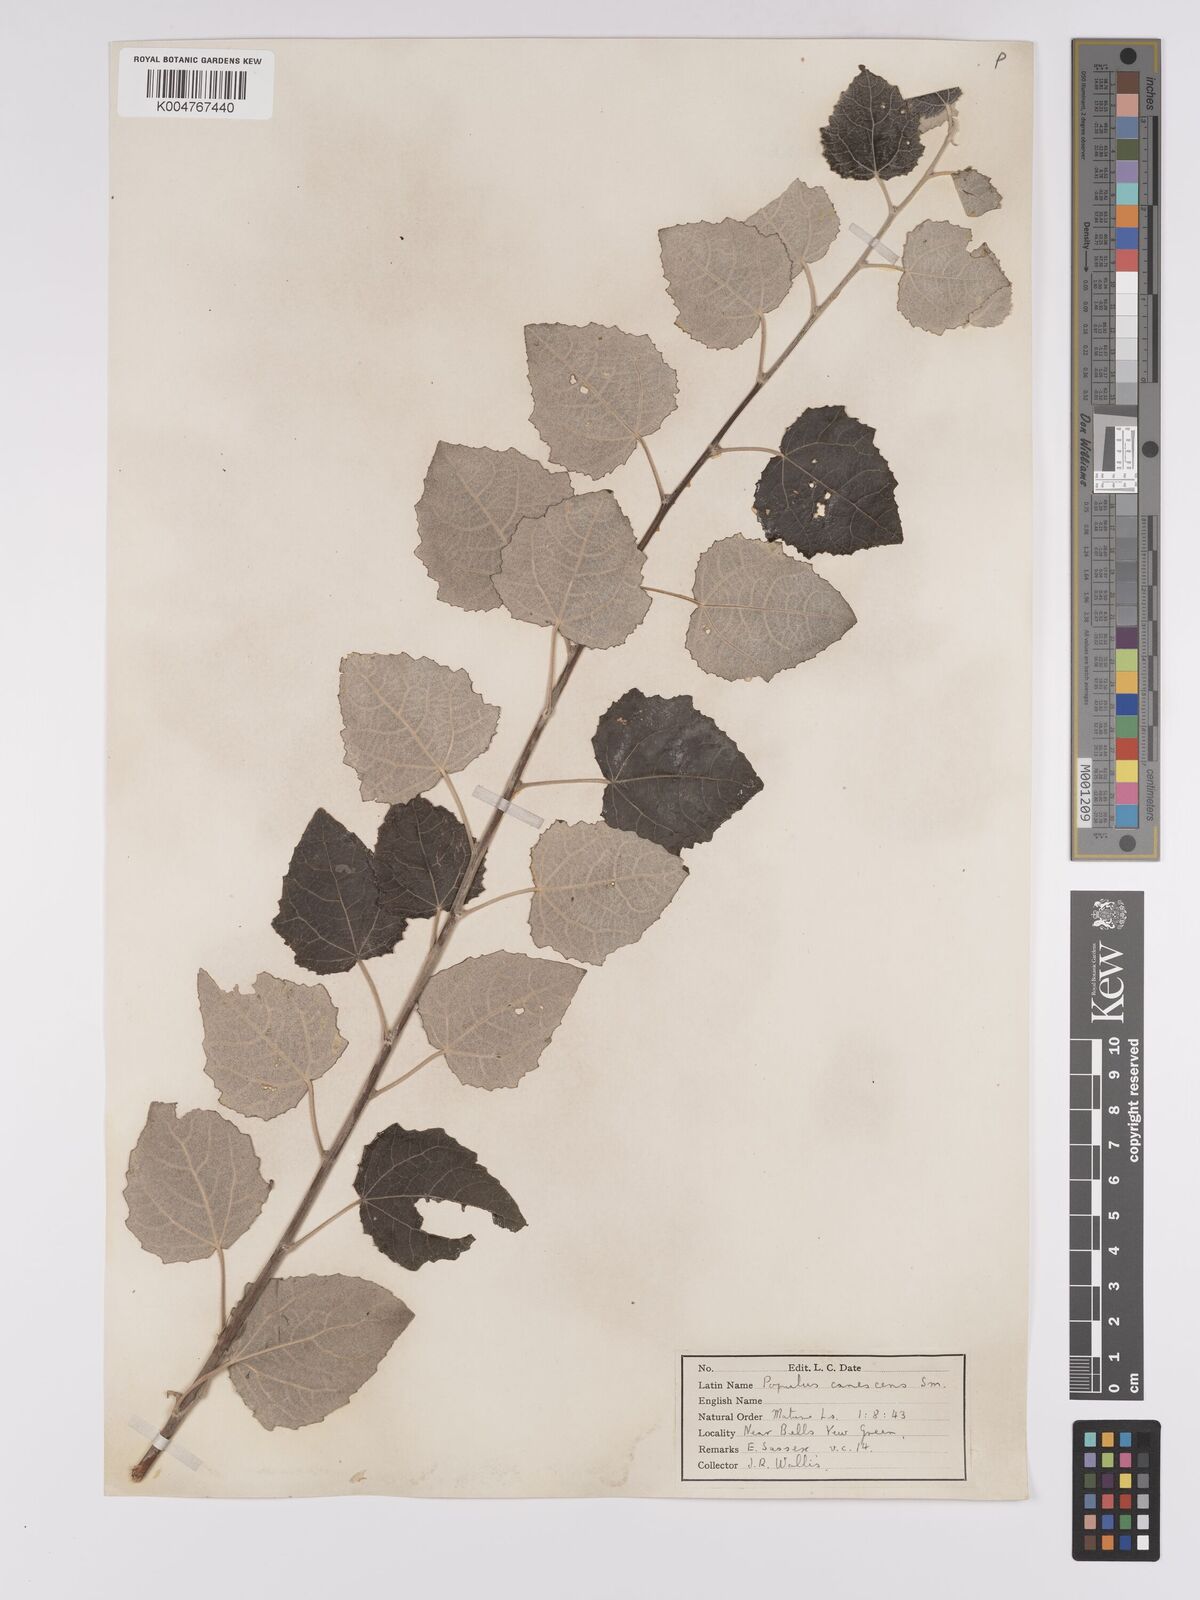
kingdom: Plantae
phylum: Tracheophyta
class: Magnoliopsida
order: Malpighiales
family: Salicaceae
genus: Populus
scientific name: Populus canescens
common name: Gray poplar
